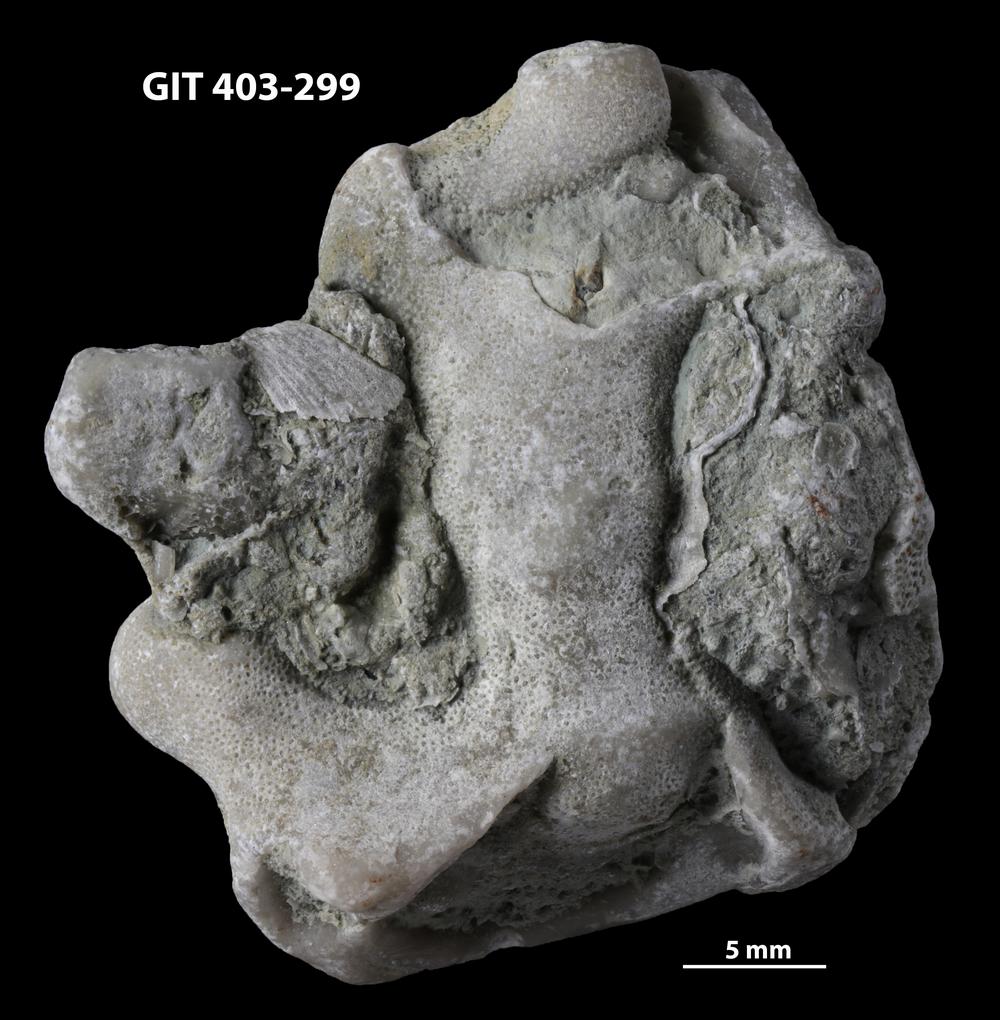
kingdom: Animalia
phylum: Bryozoa
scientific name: Bryozoa
